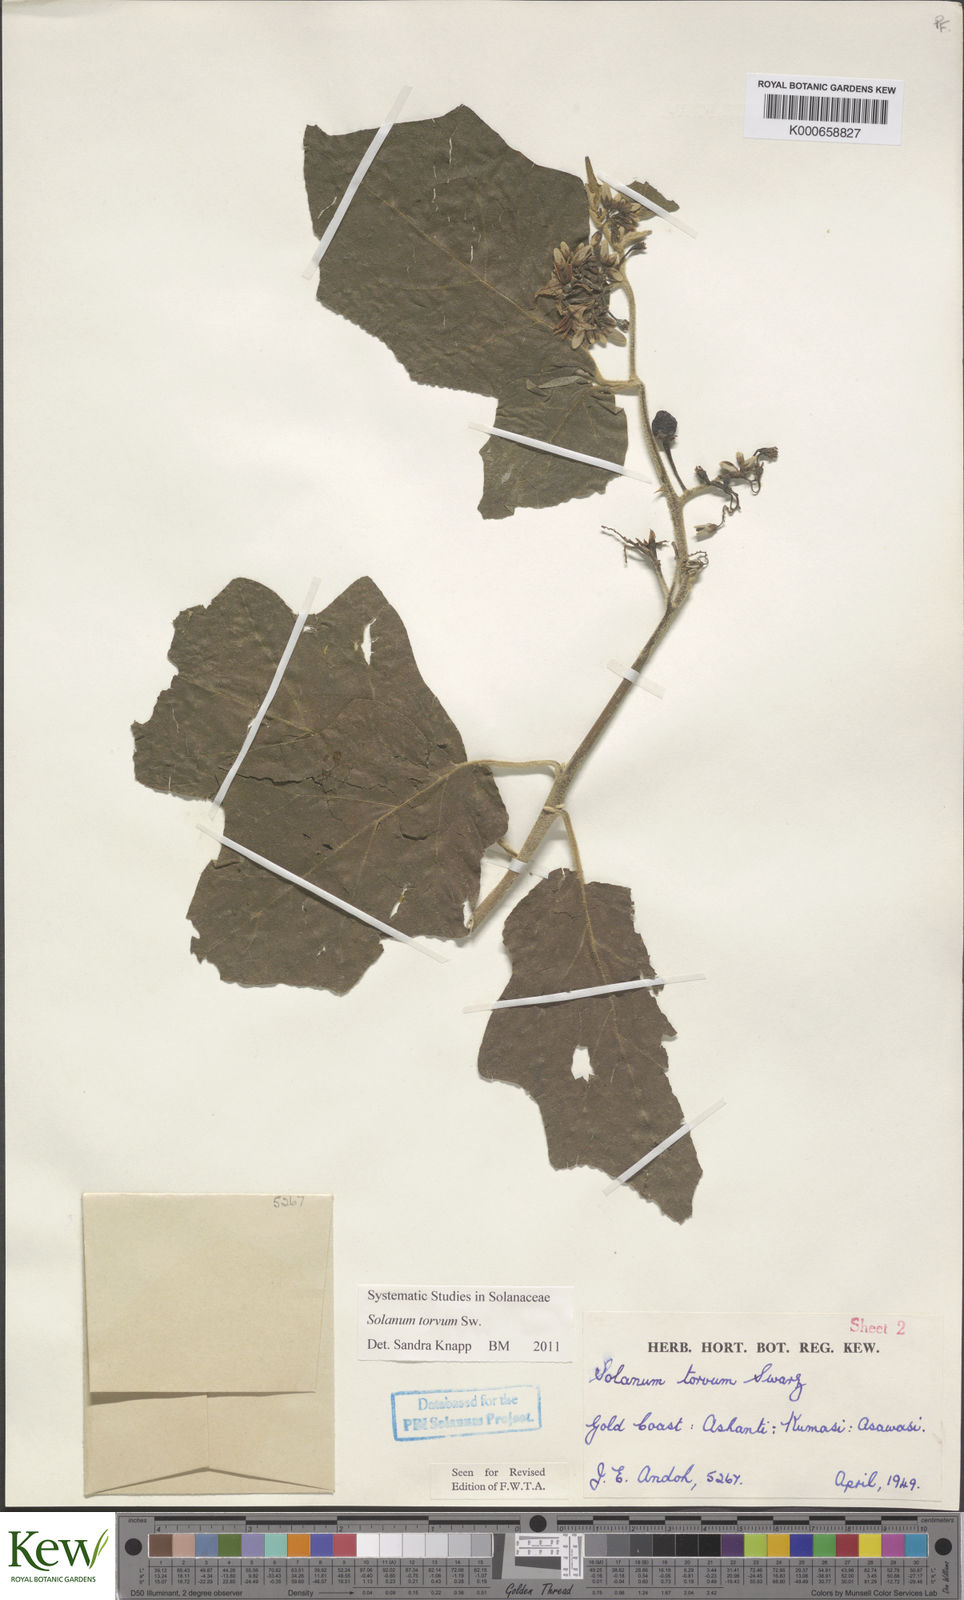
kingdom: Plantae
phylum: Tracheophyta
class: Magnoliopsida
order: Solanales
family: Solanaceae
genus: Solanum
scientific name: Solanum torvum
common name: Turkey berry
